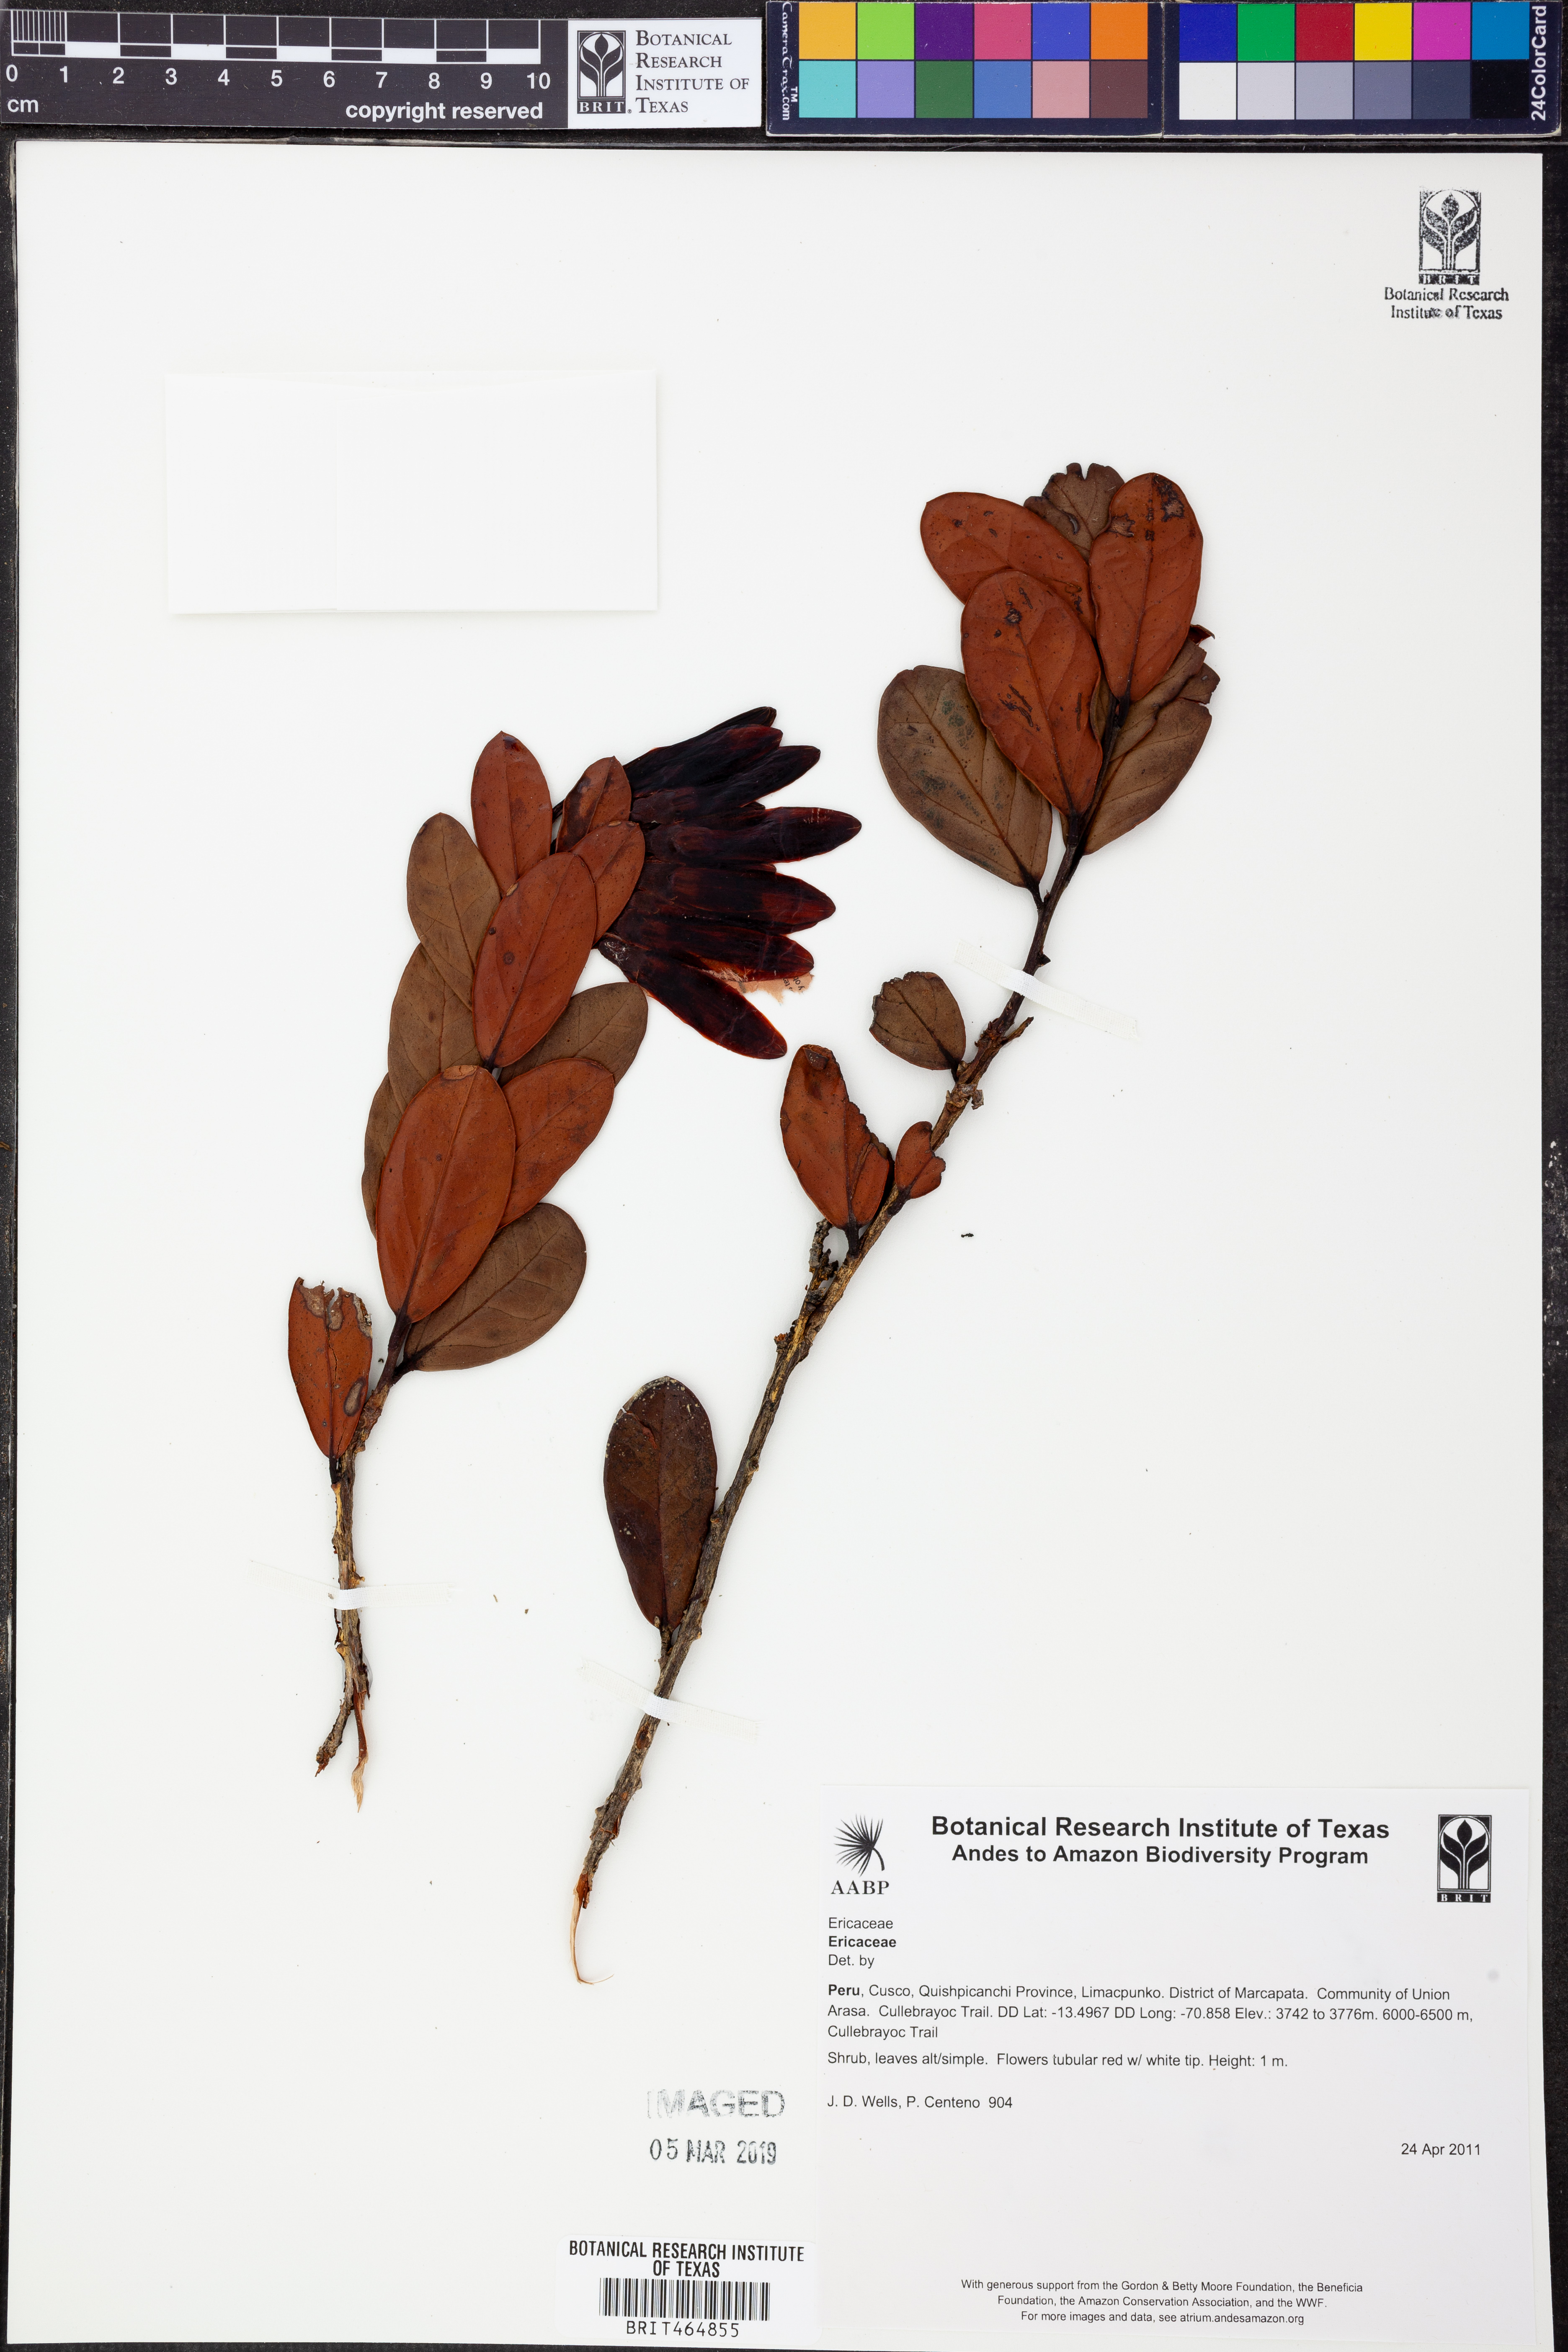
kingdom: Plantae
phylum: Tracheophyta
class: Magnoliopsida
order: Ericales
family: Ericaceae
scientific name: Ericaceae
